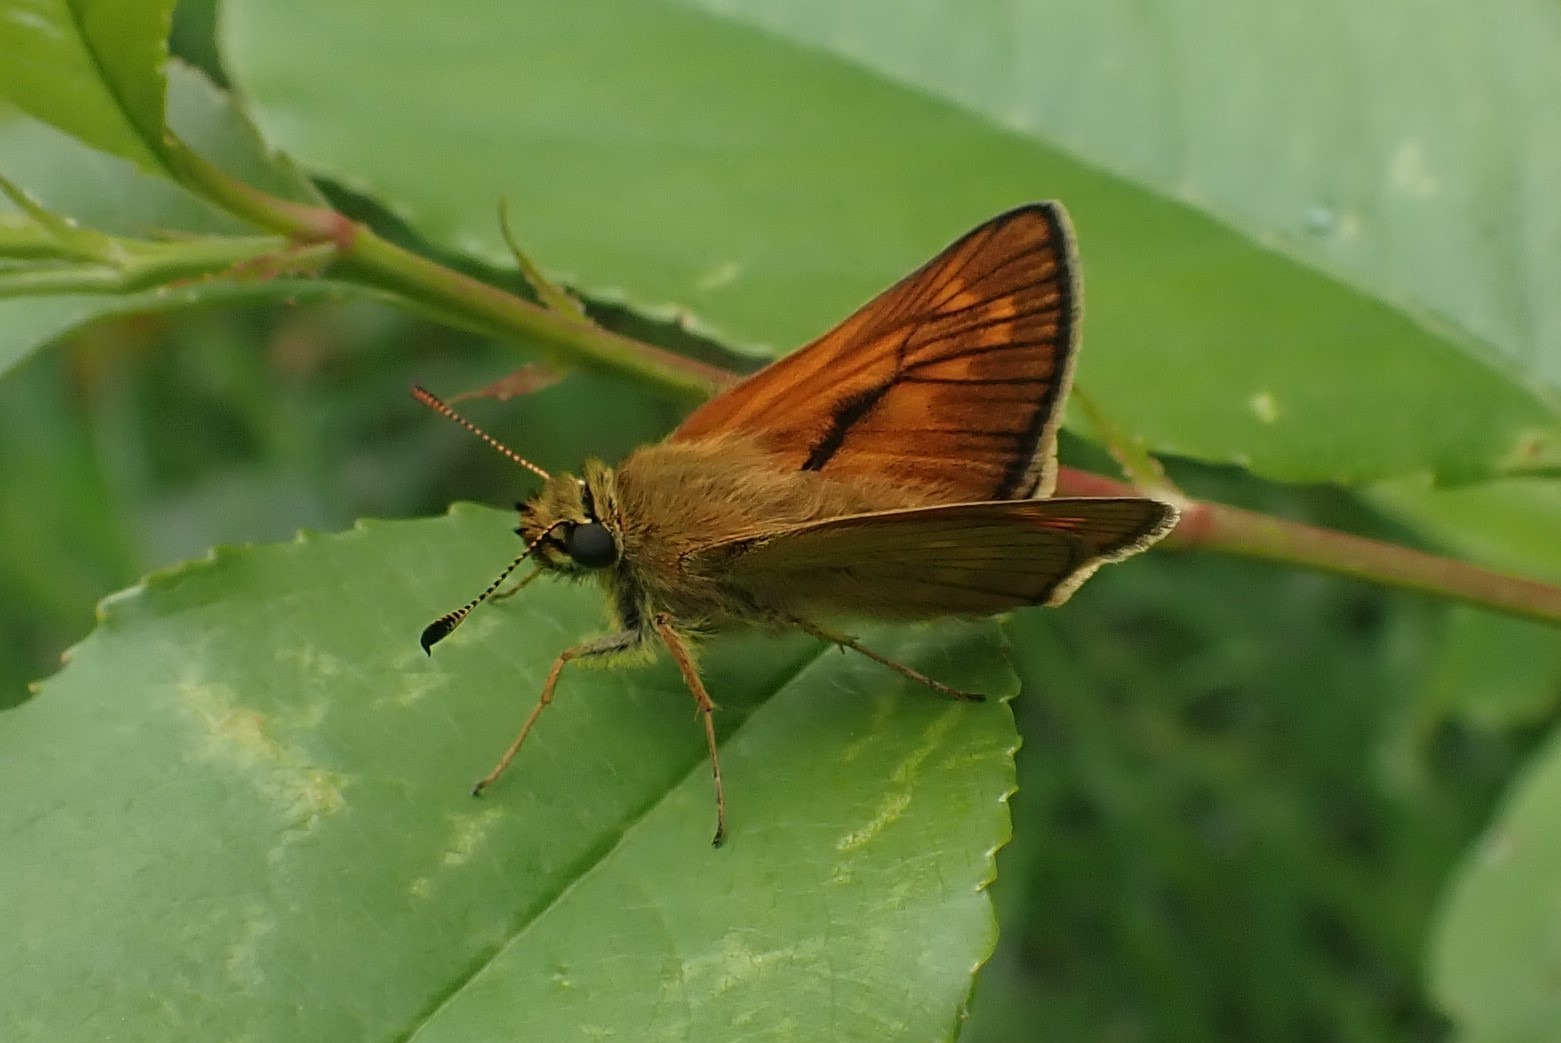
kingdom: Animalia
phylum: Arthropoda
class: Insecta
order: Lepidoptera
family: Hesperiidae
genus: Ochlodes
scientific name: Ochlodes venata
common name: Stor bredpande
